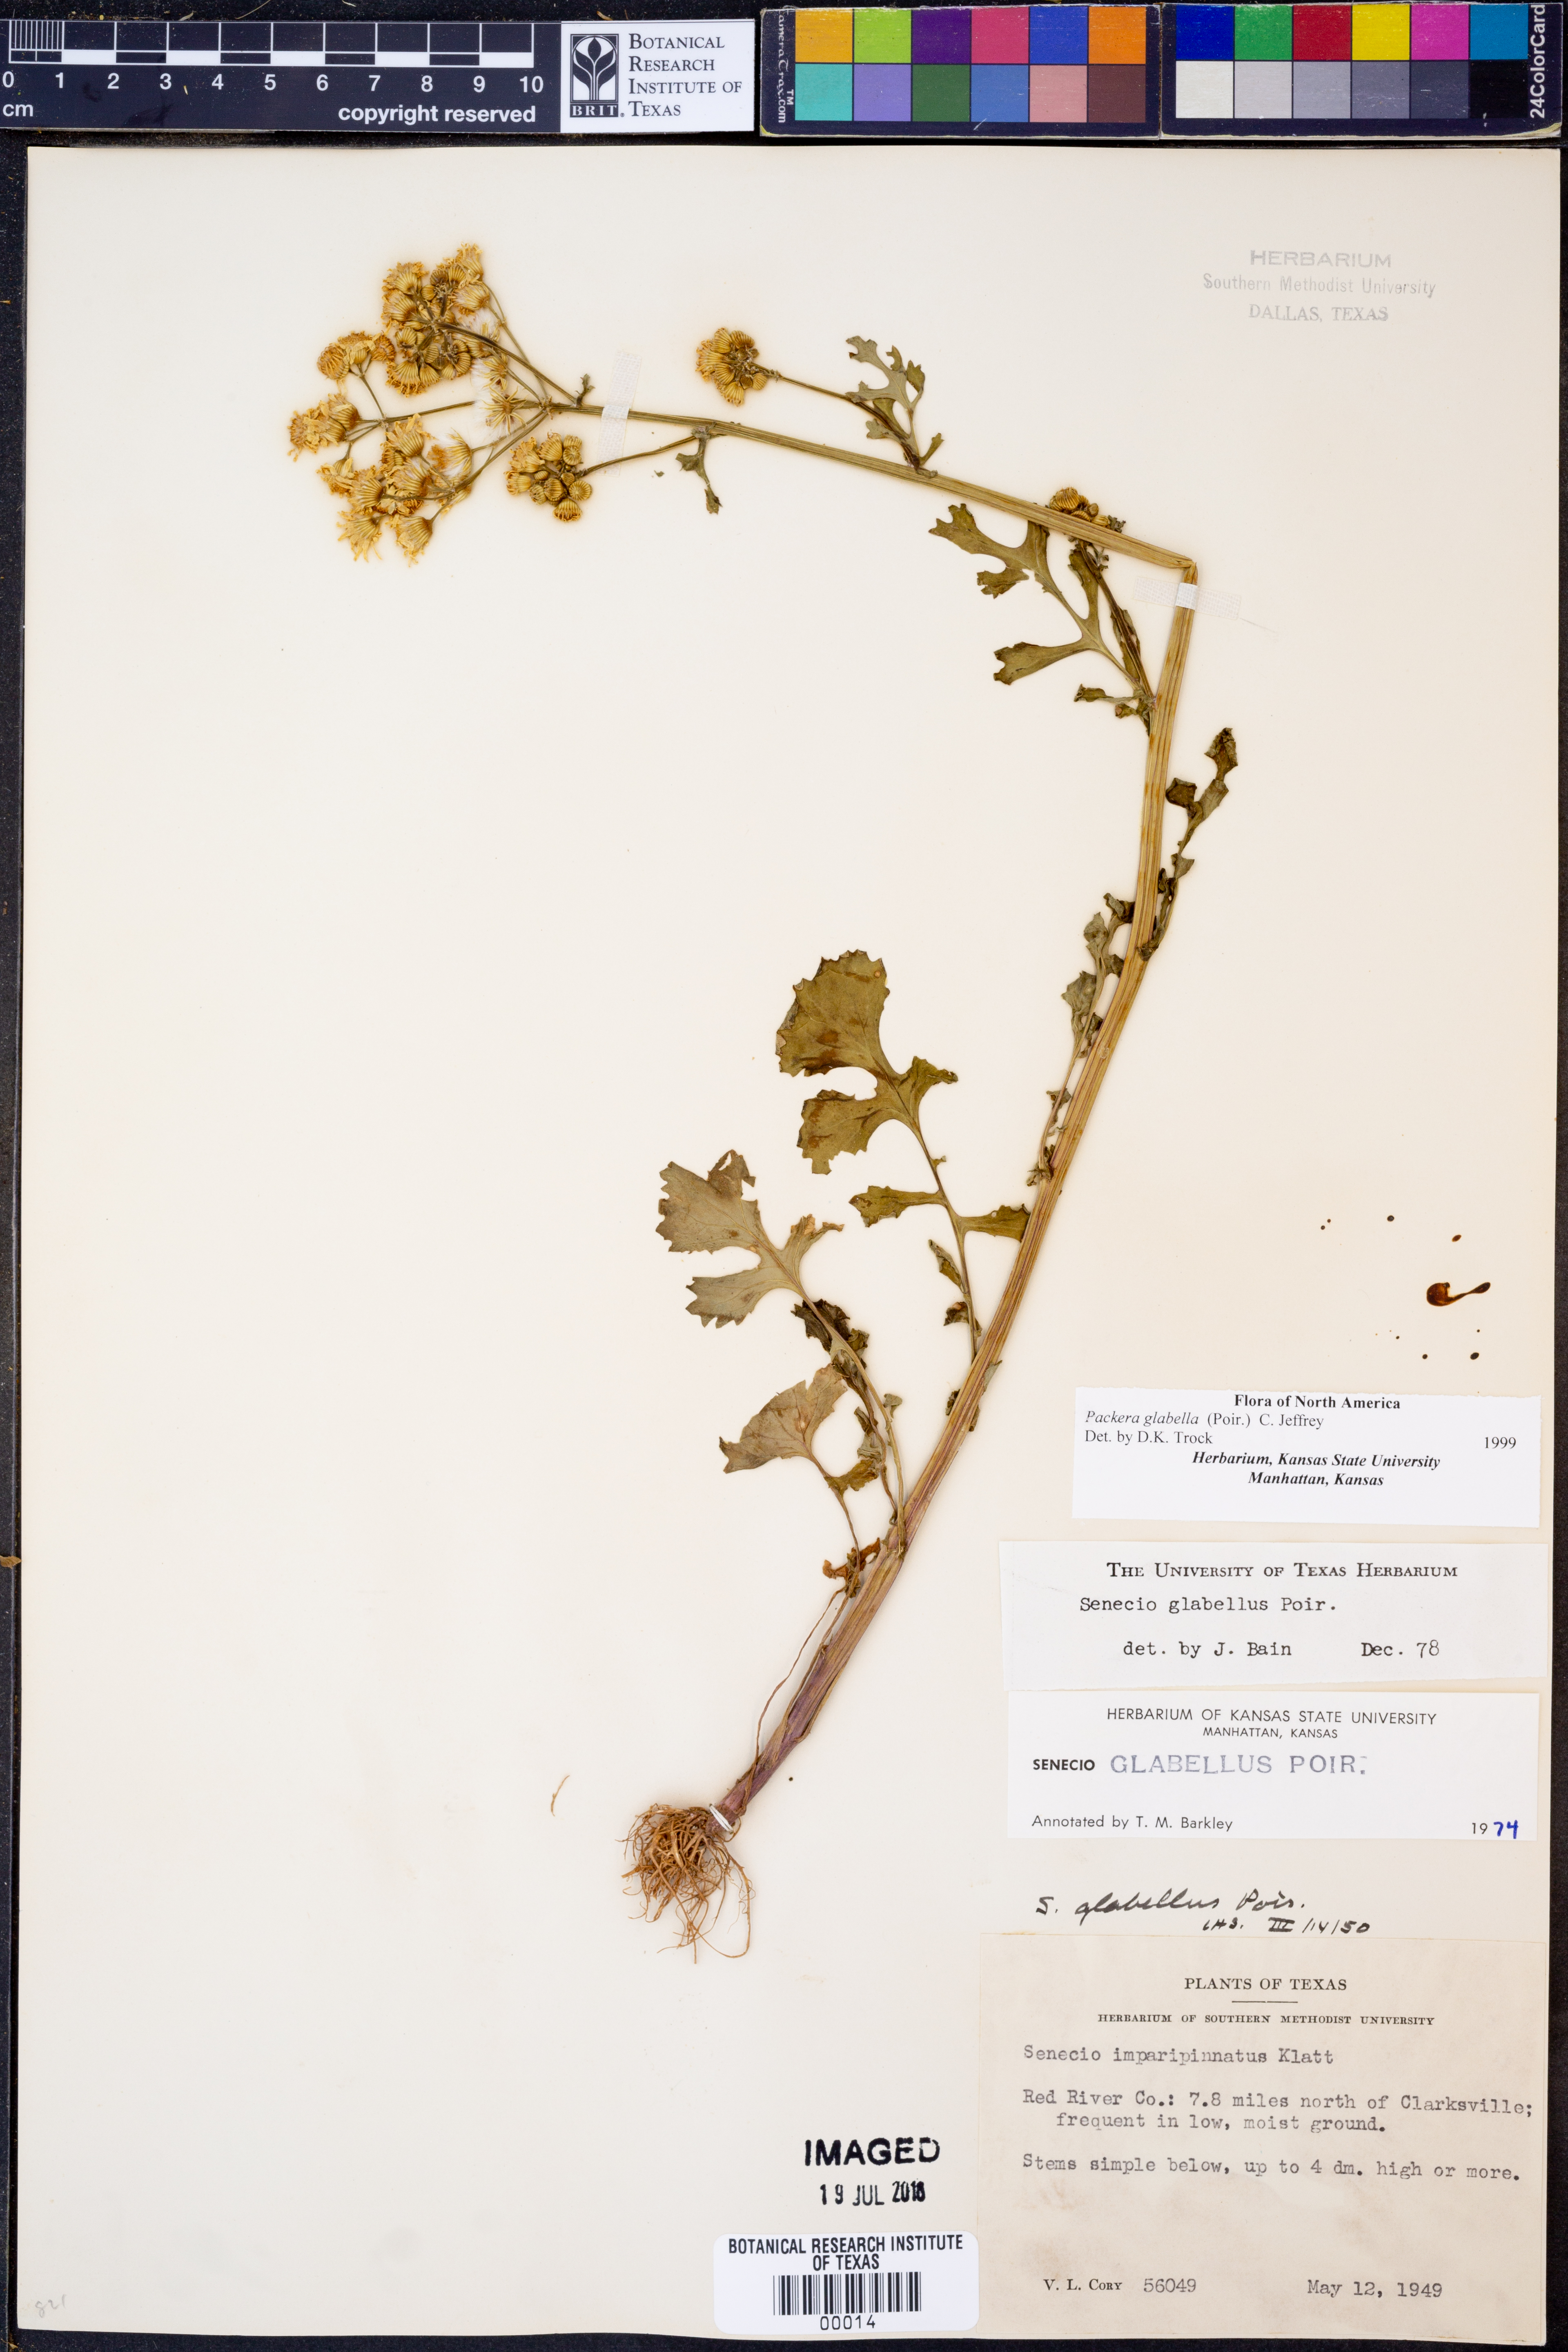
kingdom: Plantae
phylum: Tracheophyta
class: Magnoliopsida
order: Asterales
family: Asteraceae
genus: Packera
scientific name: Packera glabella
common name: Butterweed
